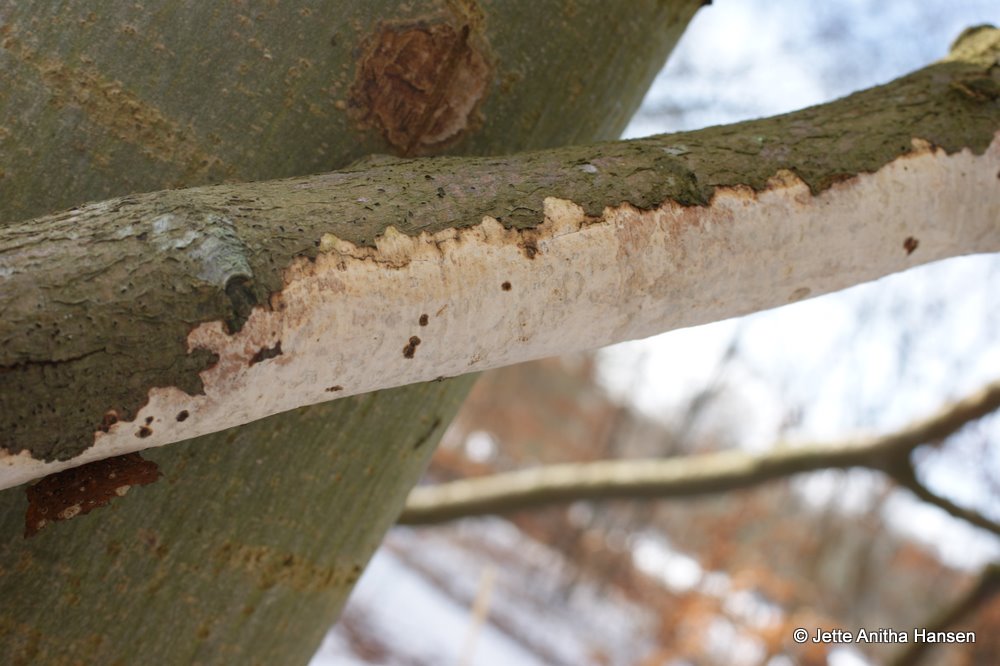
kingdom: Fungi
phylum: Basidiomycota
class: Agaricomycetes
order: Corticiales
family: Vuilleminiaceae
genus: Vuilleminia
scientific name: Vuilleminia comedens
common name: almindelig barksprænger
